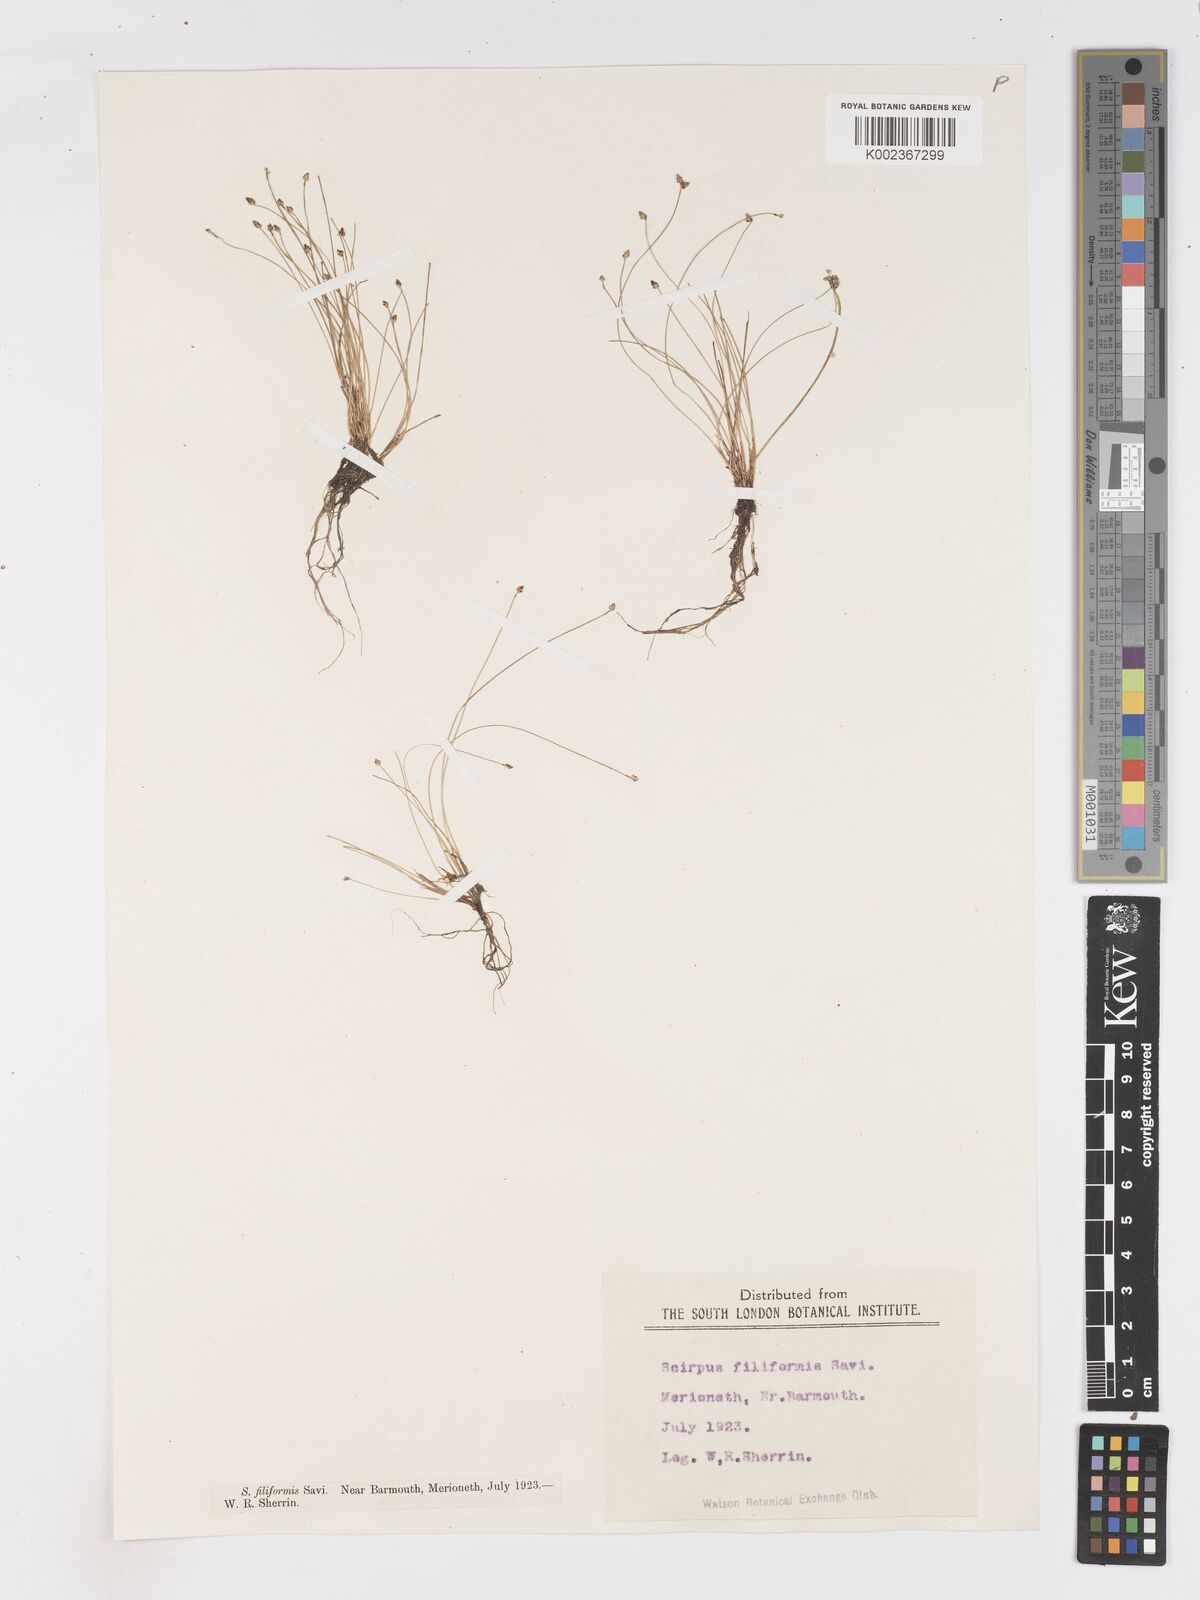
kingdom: Plantae
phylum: Tracheophyta
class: Liliopsida
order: Poales
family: Cyperaceae
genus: Isolepis
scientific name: Isolepis cernua
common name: Slender club-rush
